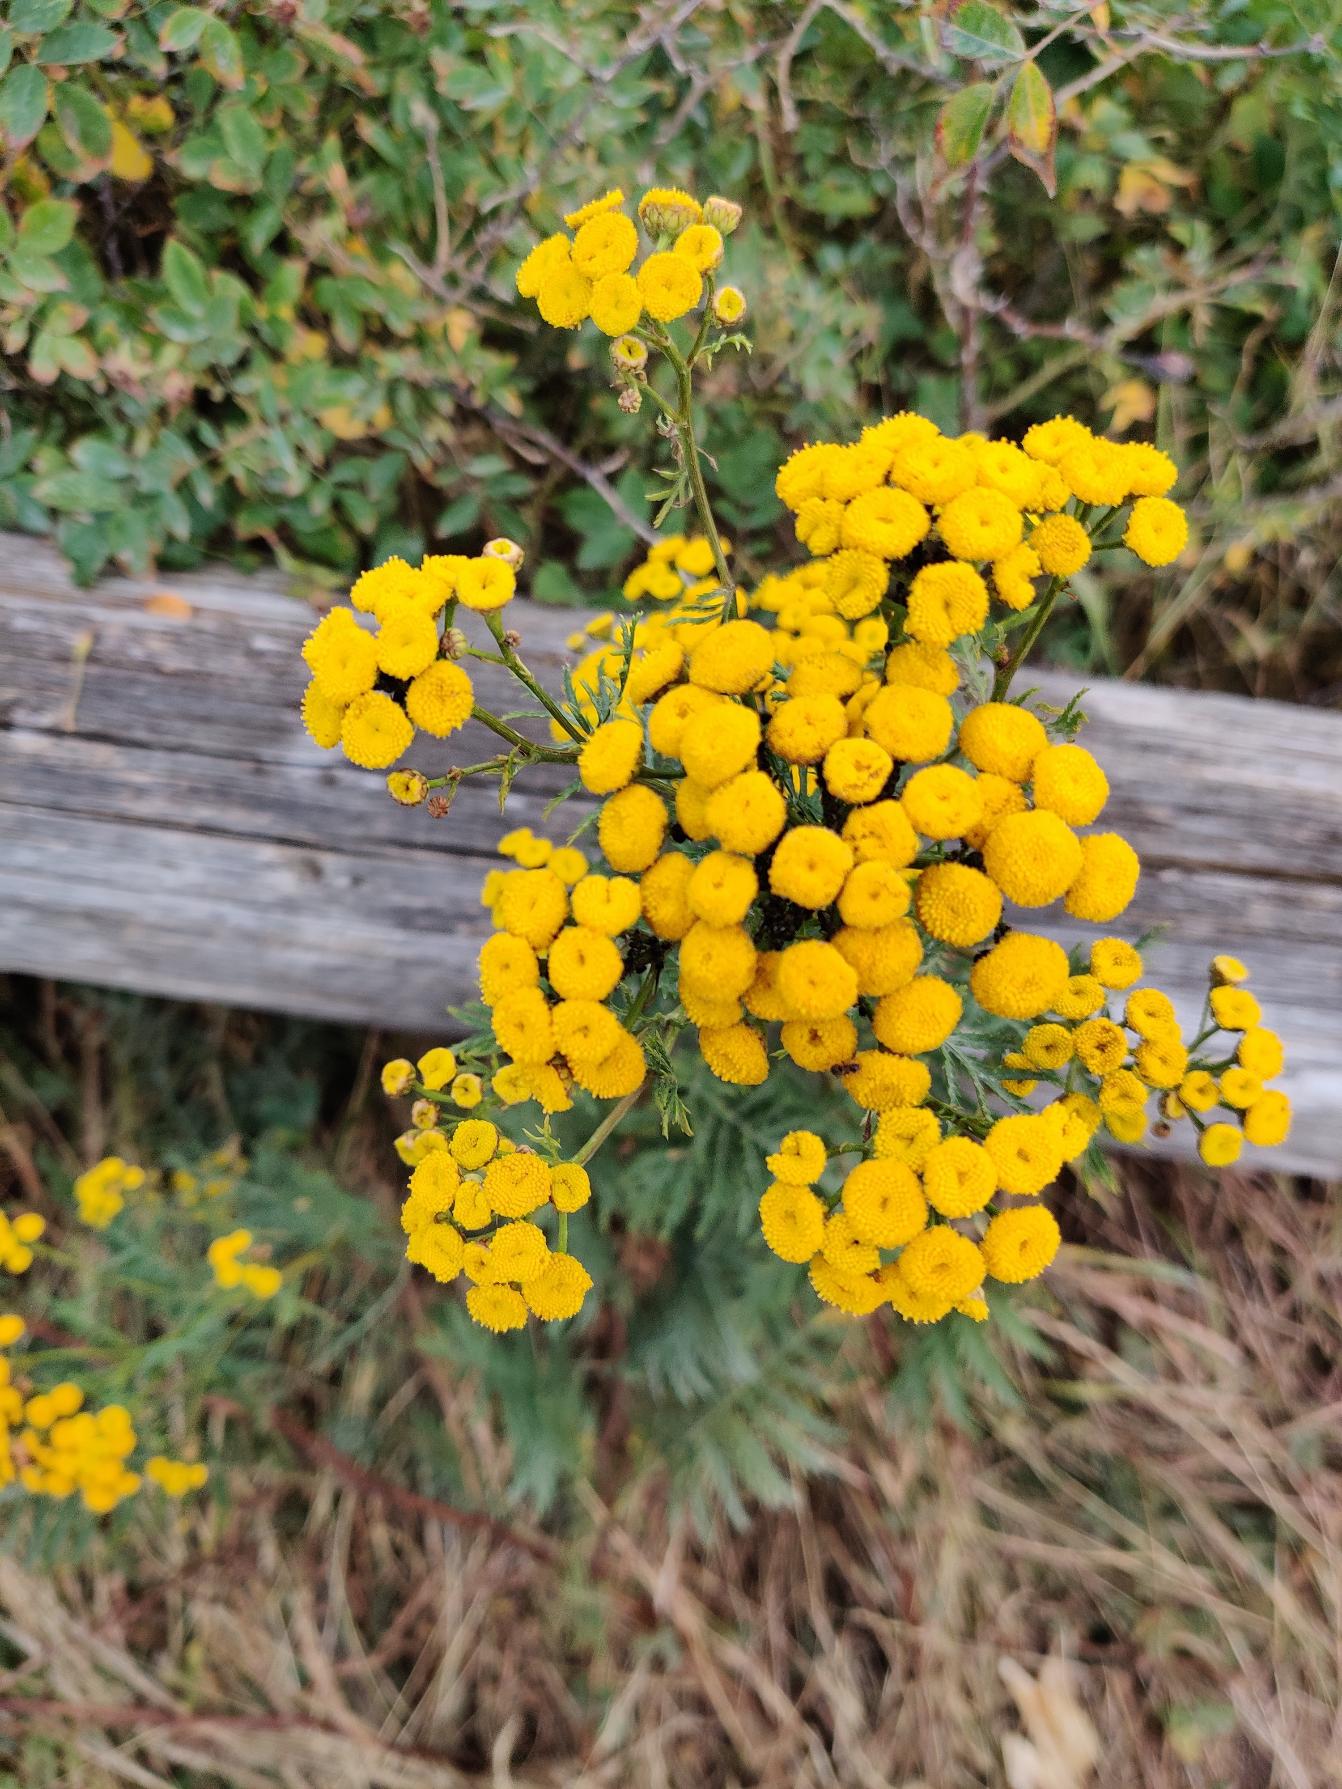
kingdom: Plantae
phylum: Tracheophyta
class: Magnoliopsida
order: Asterales
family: Asteraceae
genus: Tanacetum
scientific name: Tanacetum vulgare
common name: Rejnfan
